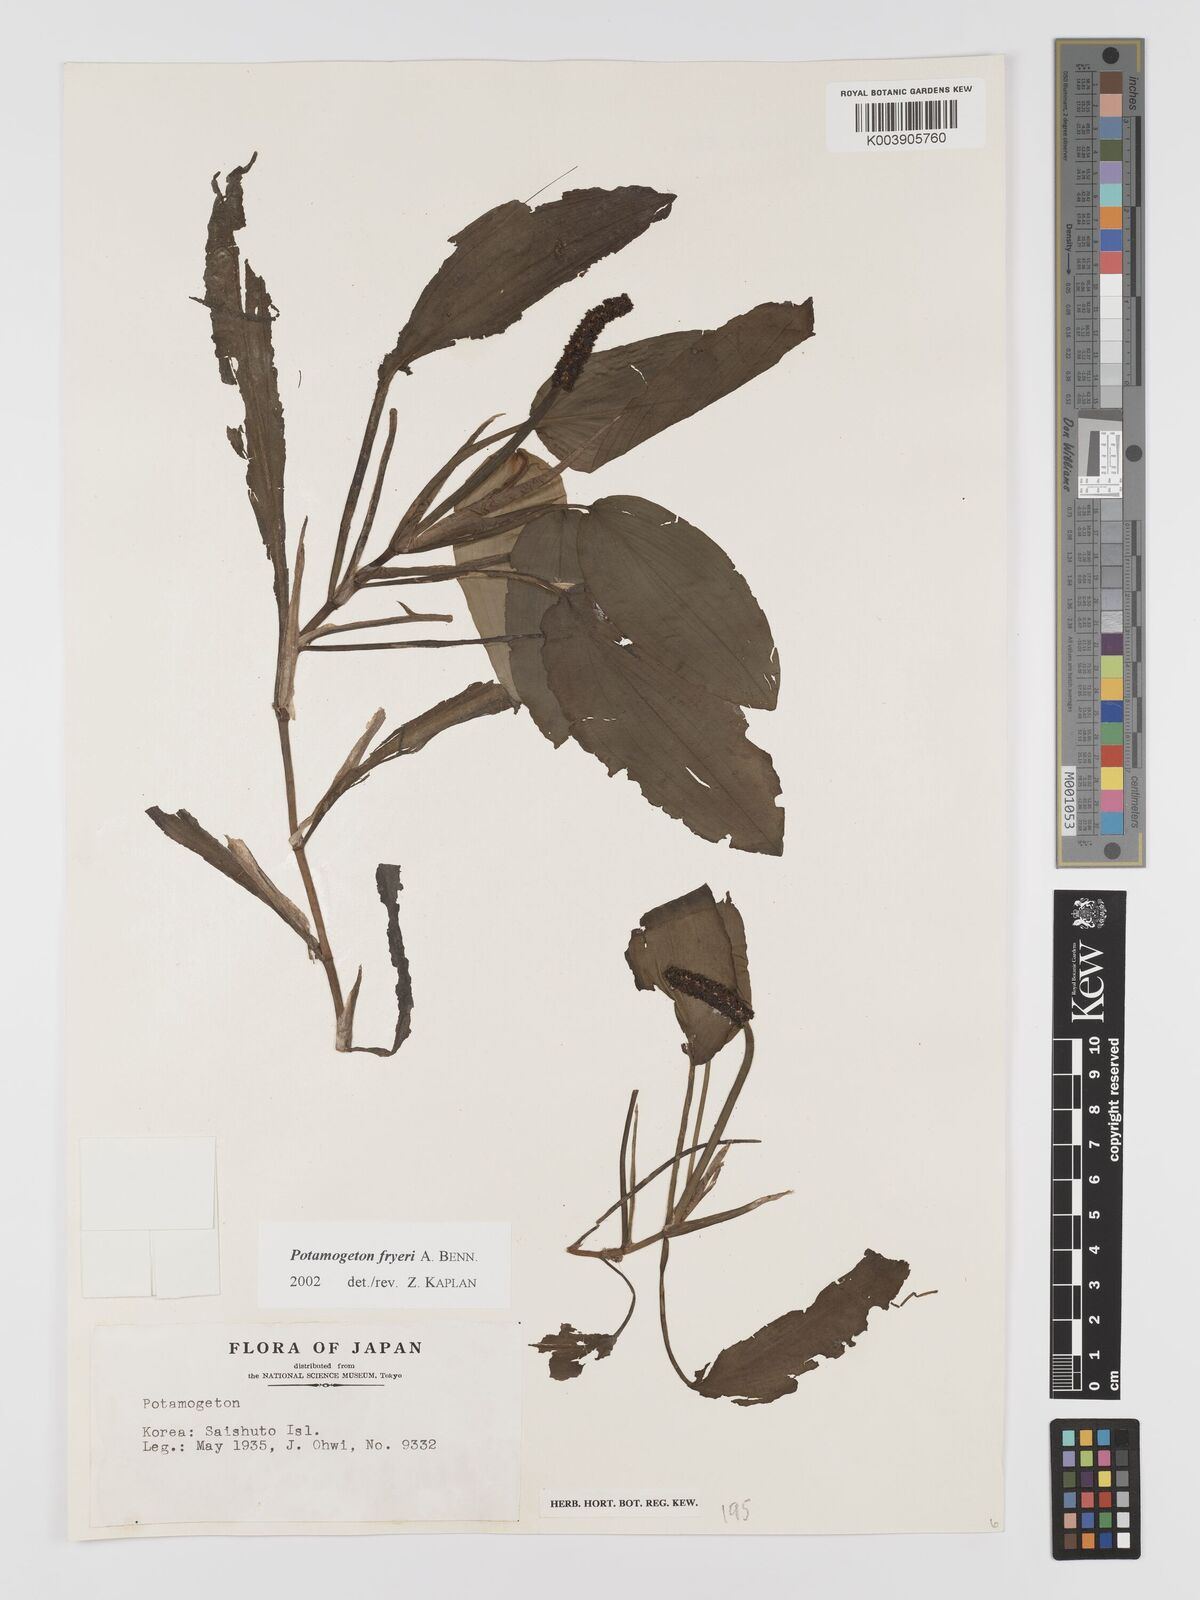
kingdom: Plantae
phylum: Tracheophyta
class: Liliopsida
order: Alismatales
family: Potamogetonaceae
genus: Potamogeton
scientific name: Potamogeton fryeri
